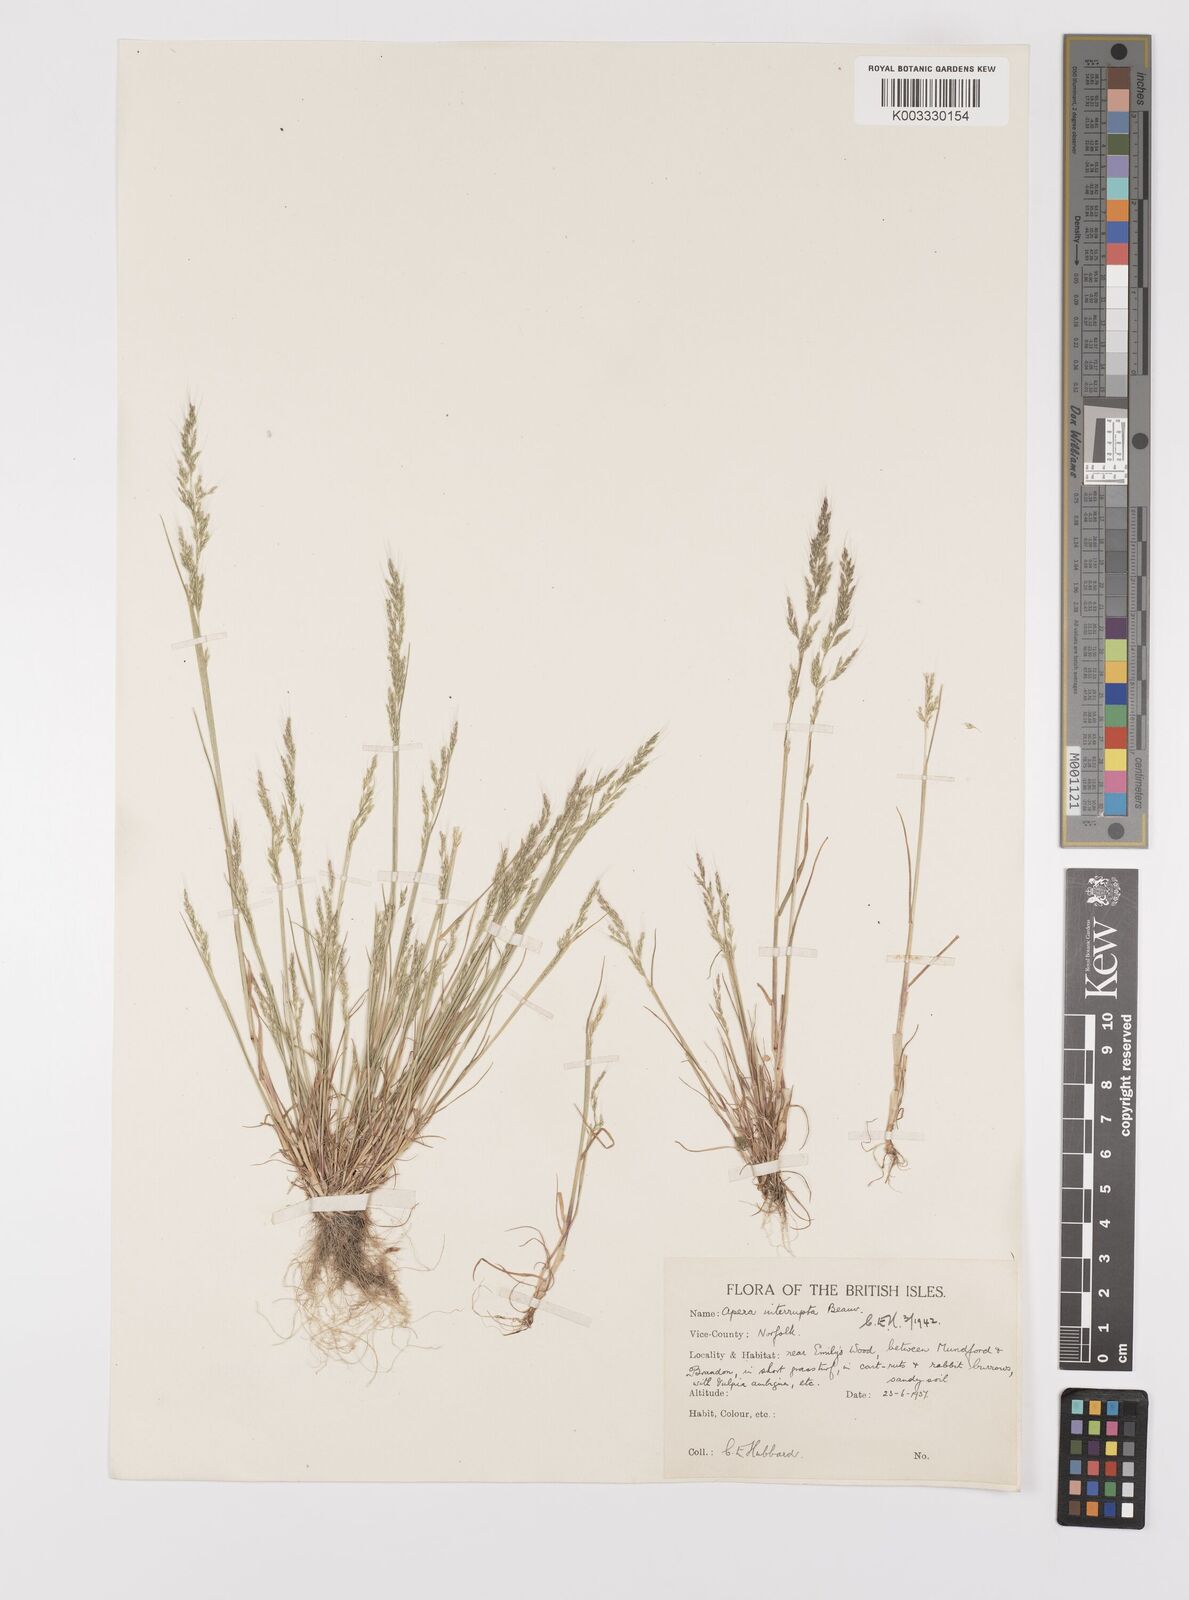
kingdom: Plantae
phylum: Tracheophyta
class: Liliopsida
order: Poales
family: Poaceae
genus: Apera
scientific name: Apera interrupta
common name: Dense silky-bent
